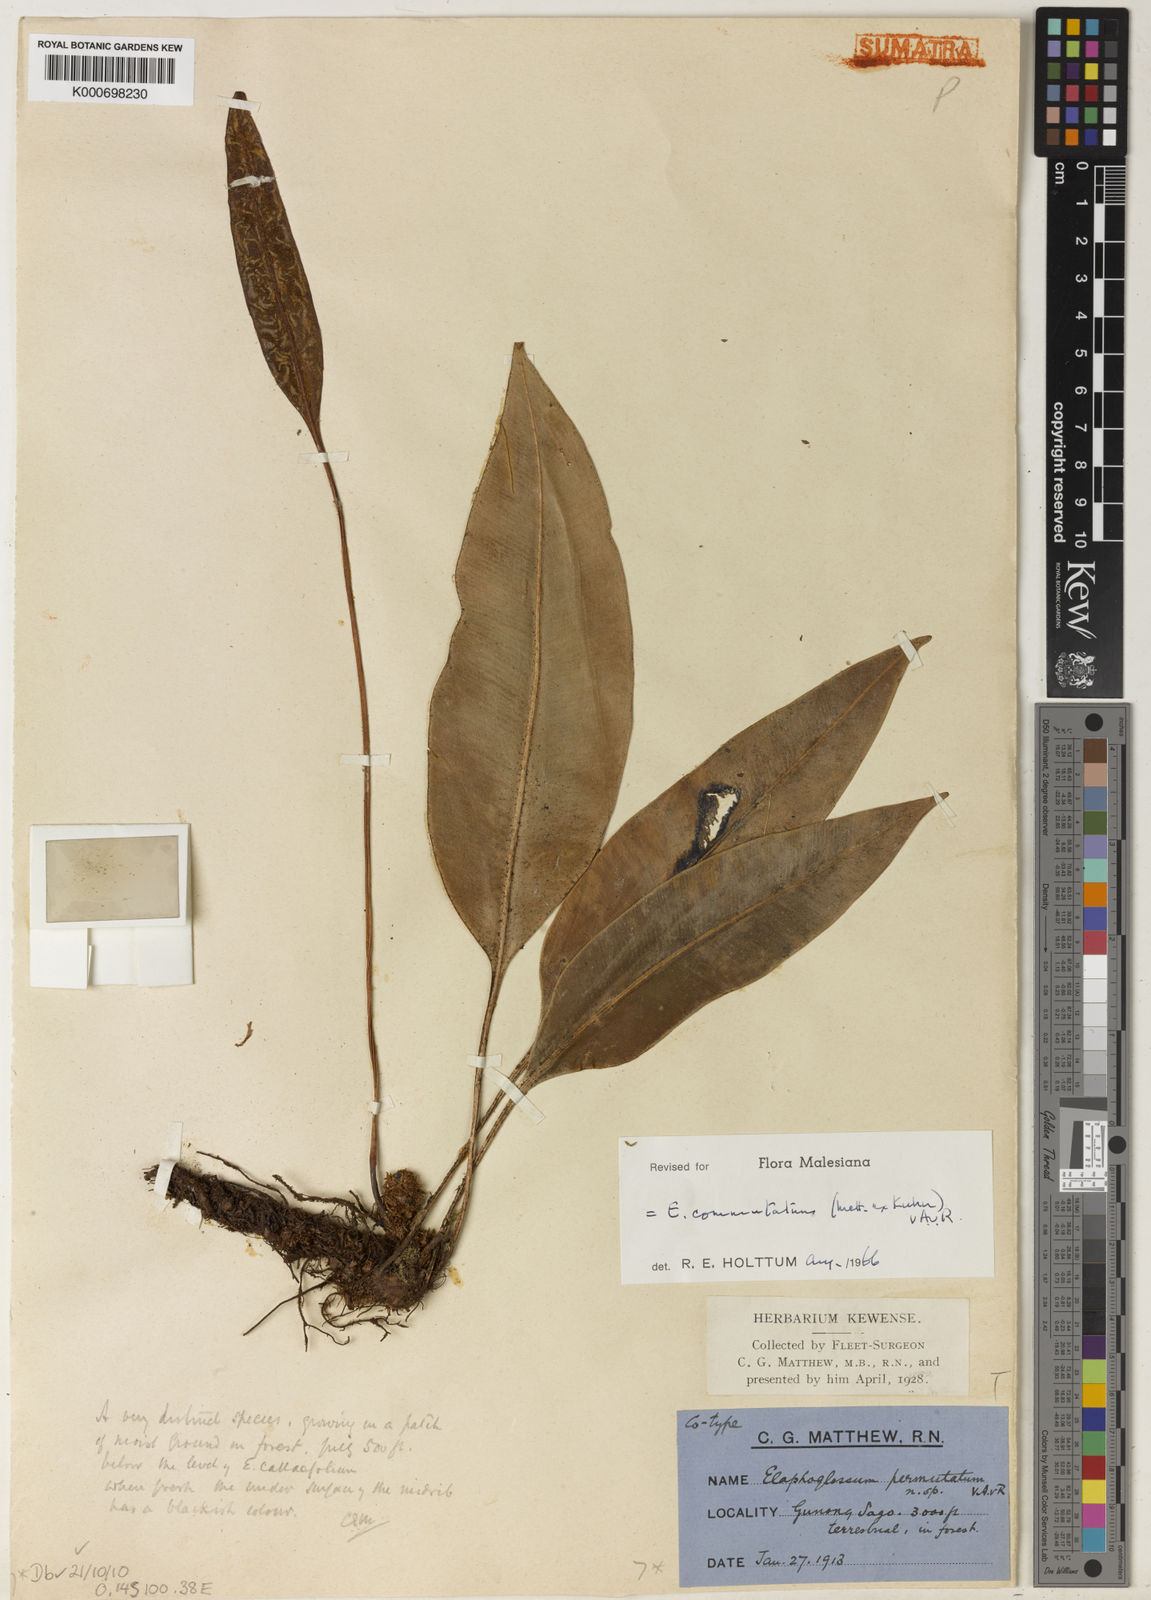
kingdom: Plantae
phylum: Tracheophyta
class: Polypodiopsida
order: Polypodiales
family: Dryopteridaceae
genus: Elaphoglossum
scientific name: Elaphoglossum commutatum
